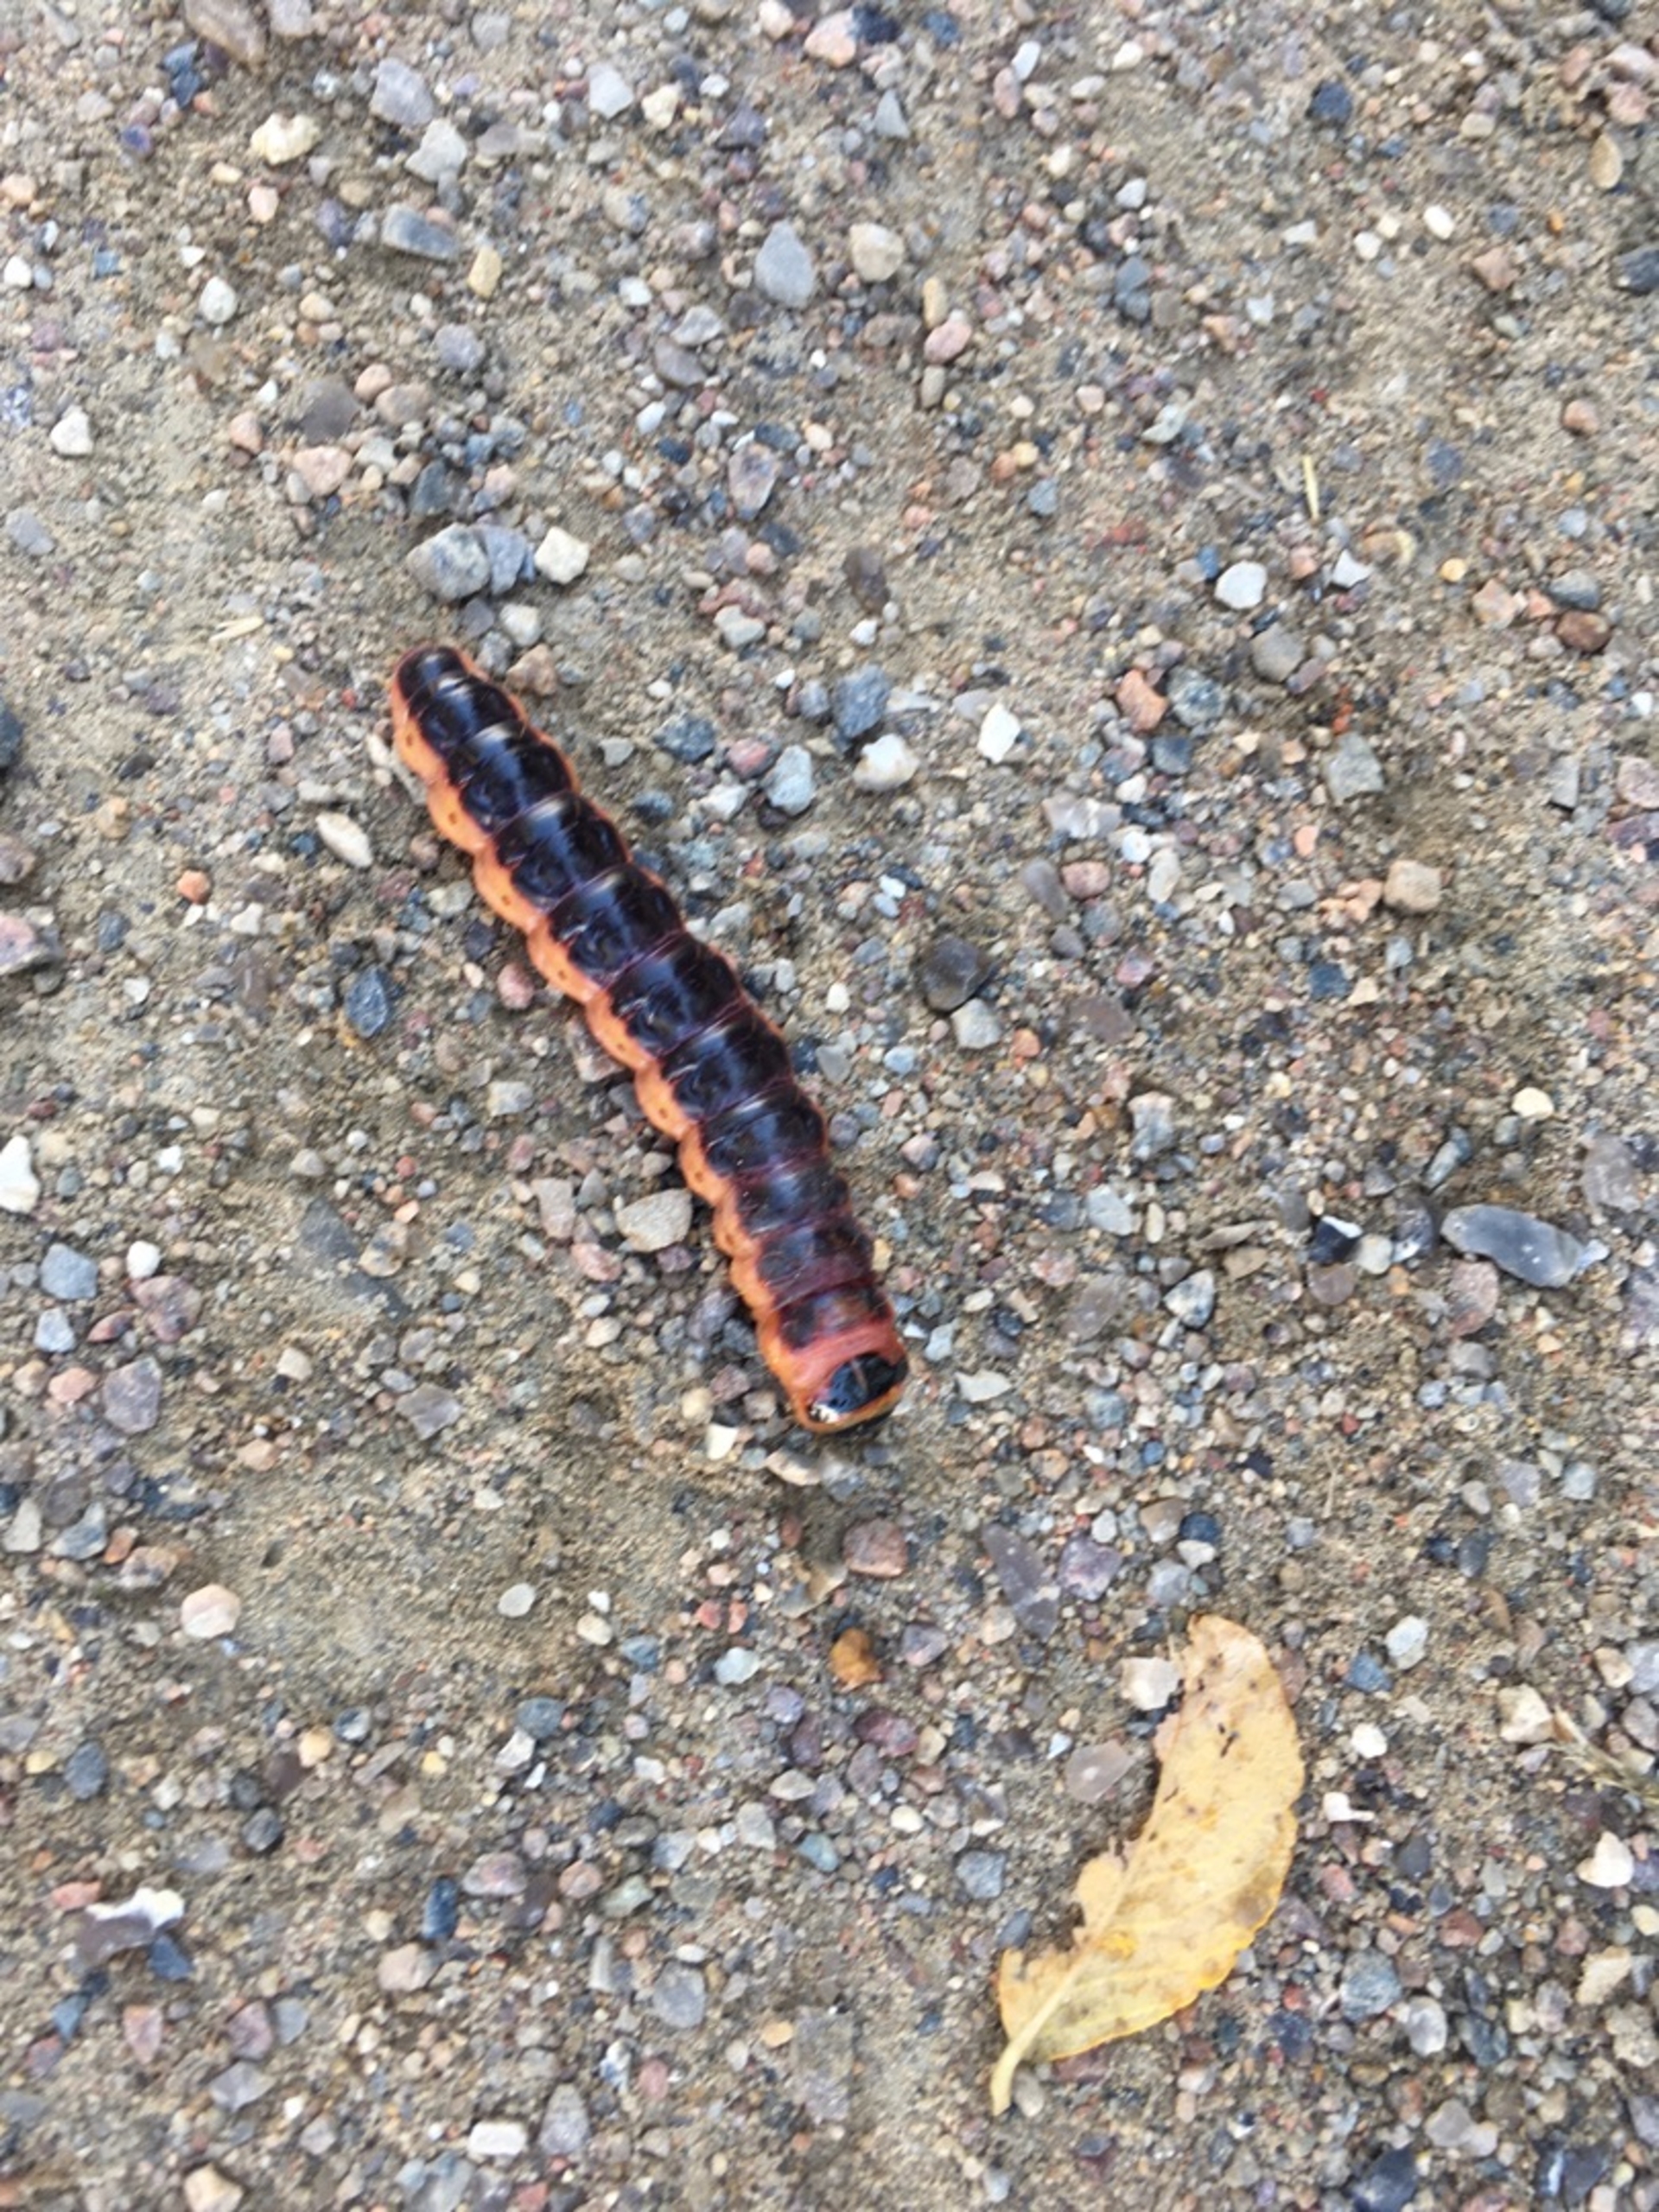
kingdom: Animalia
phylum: Arthropoda
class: Insecta
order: Lepidoptera
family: Cossidae
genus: Cossus
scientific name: Cossus cossus
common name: Pileborer
